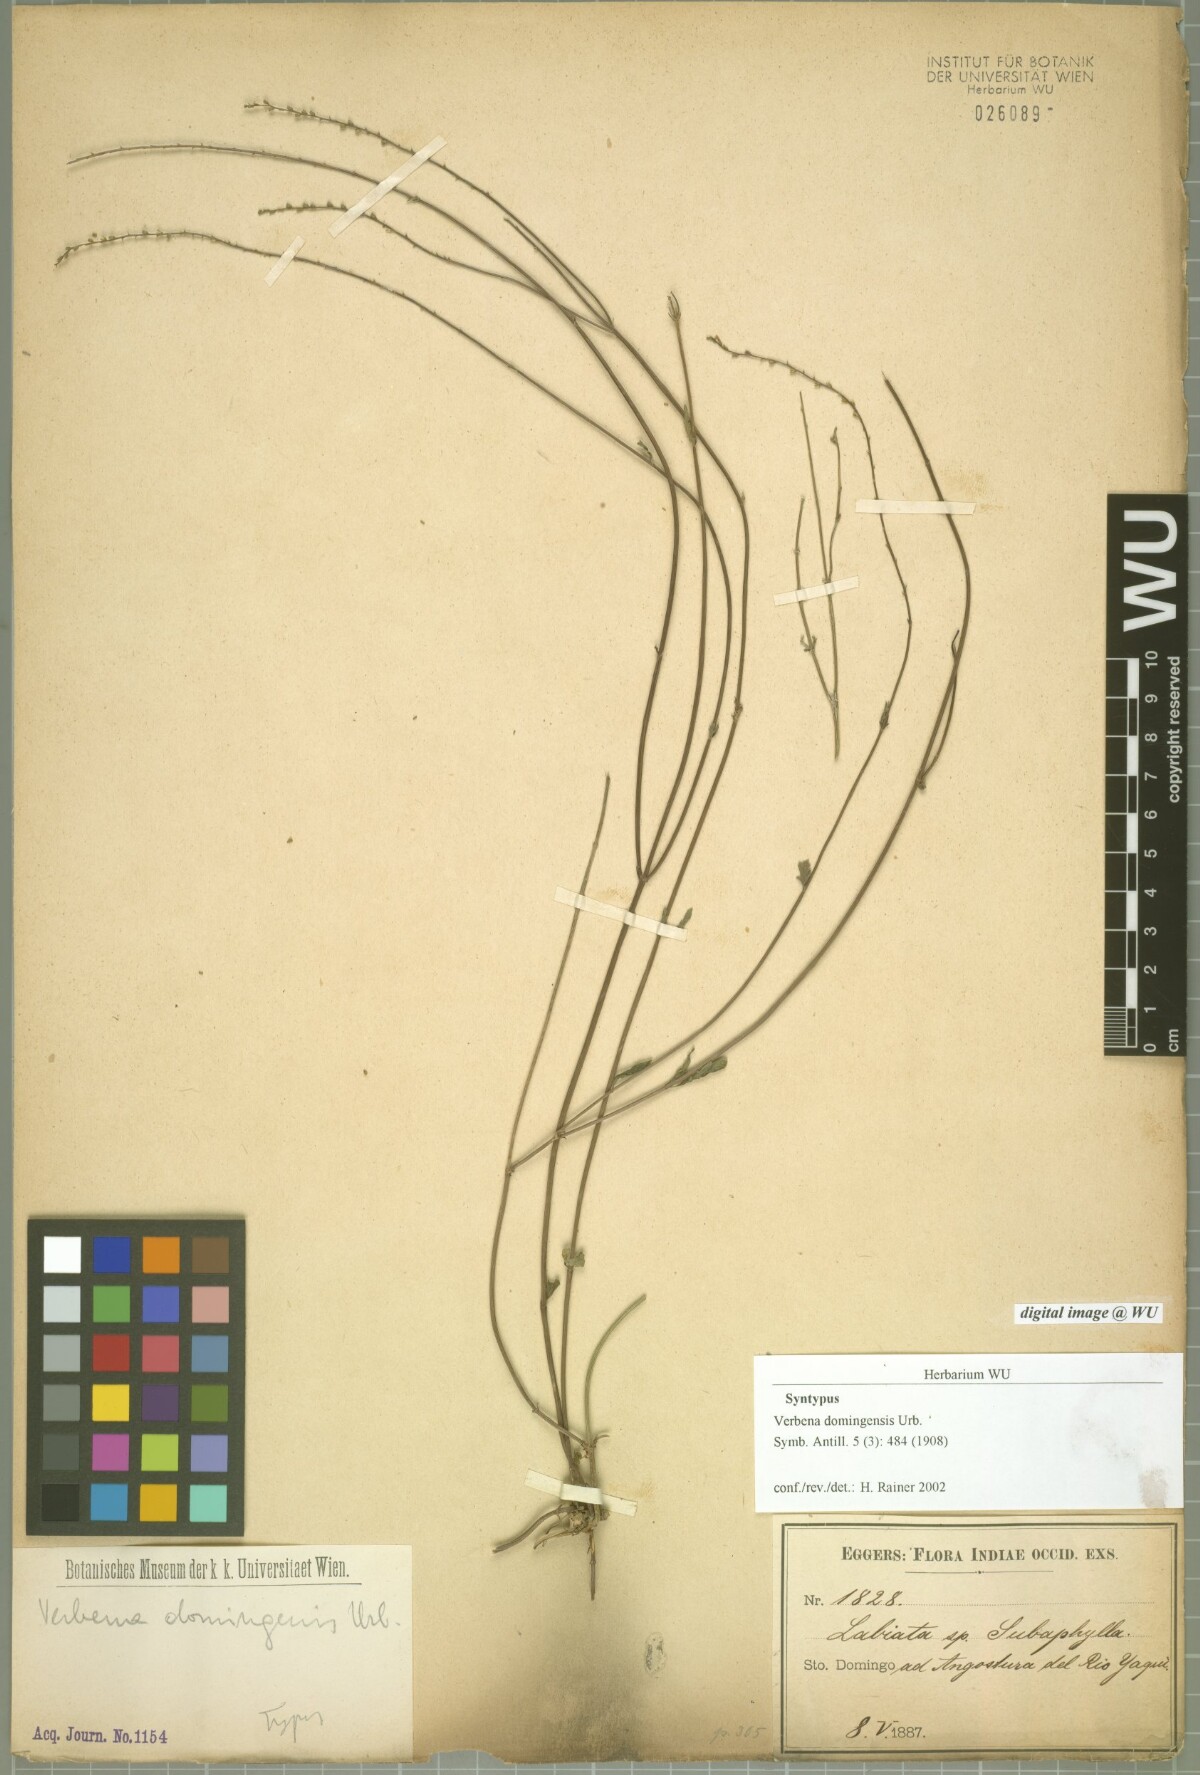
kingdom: Plantae
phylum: Tracheophyta
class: Magnoliopsida
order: Lamiales
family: Verbenaceae
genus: Verbena
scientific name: Verbena officinalis
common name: Vervain
